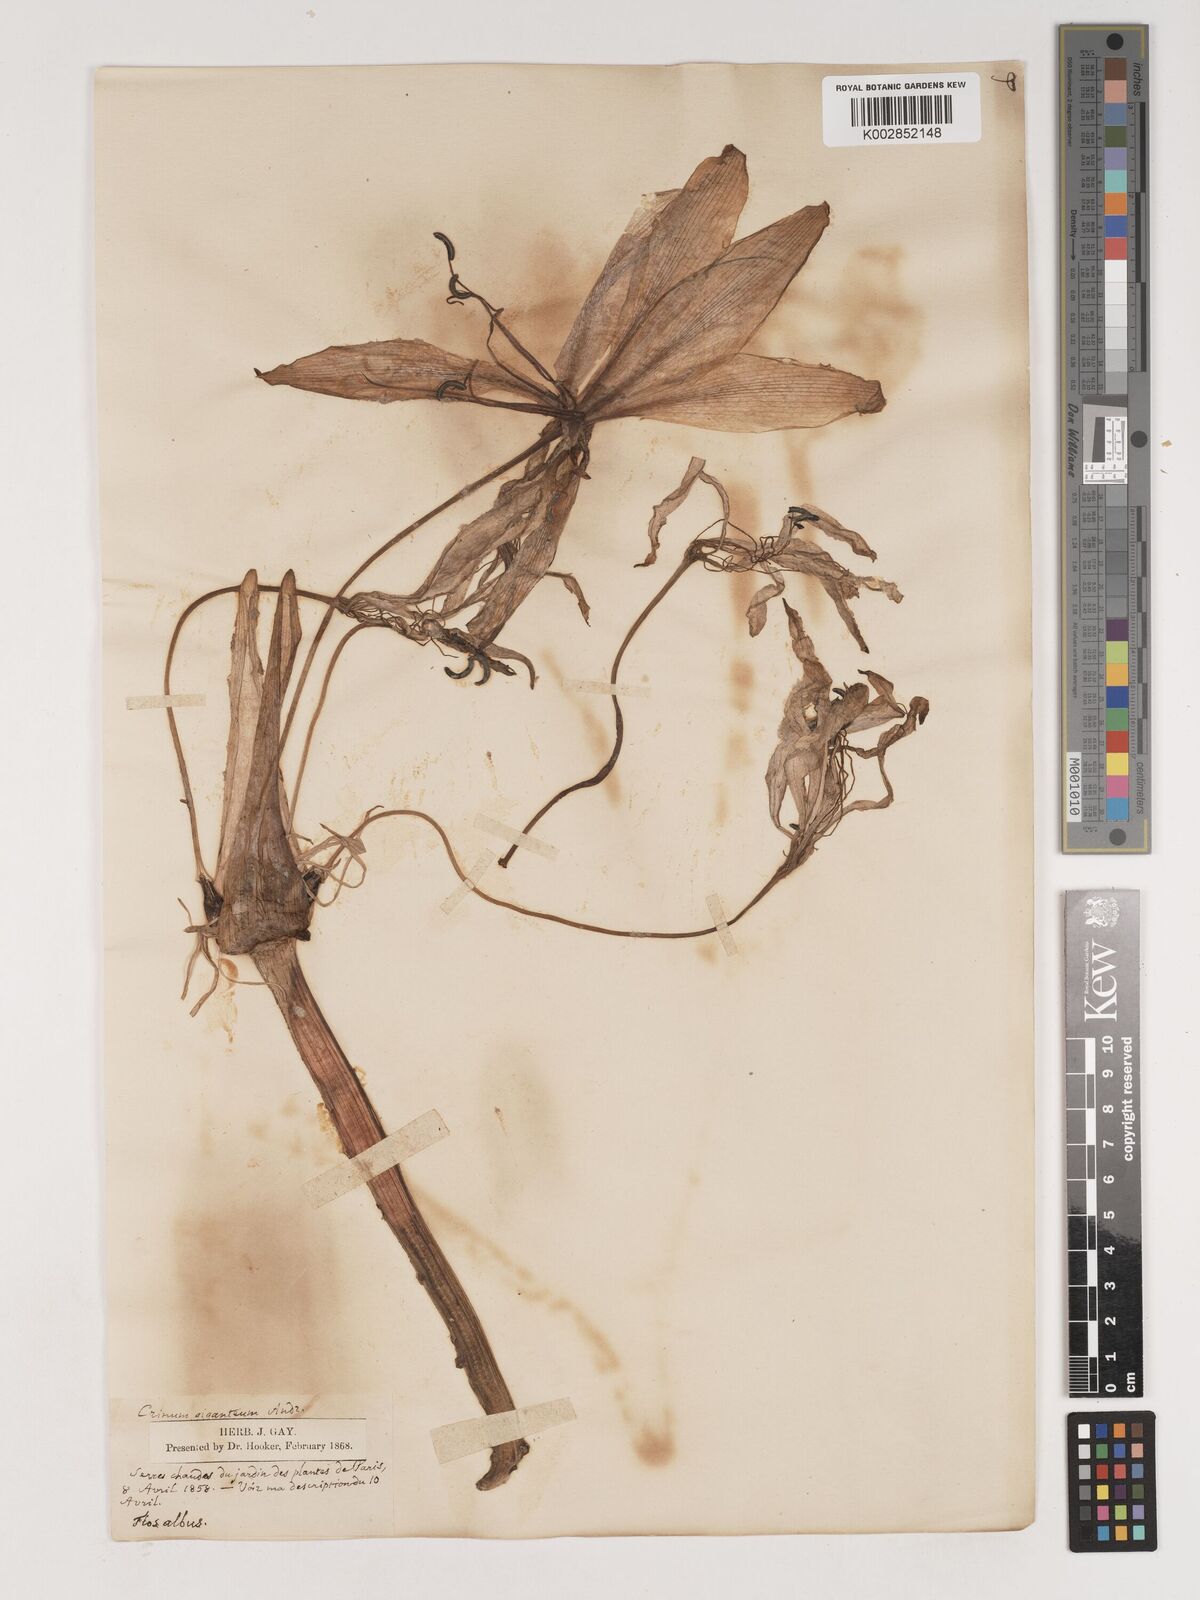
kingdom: Plantae
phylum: Tracheophyta
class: Liliopsida
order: Asparagales
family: Amaryllidaceae
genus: Crinum
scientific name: Crinum jagus
